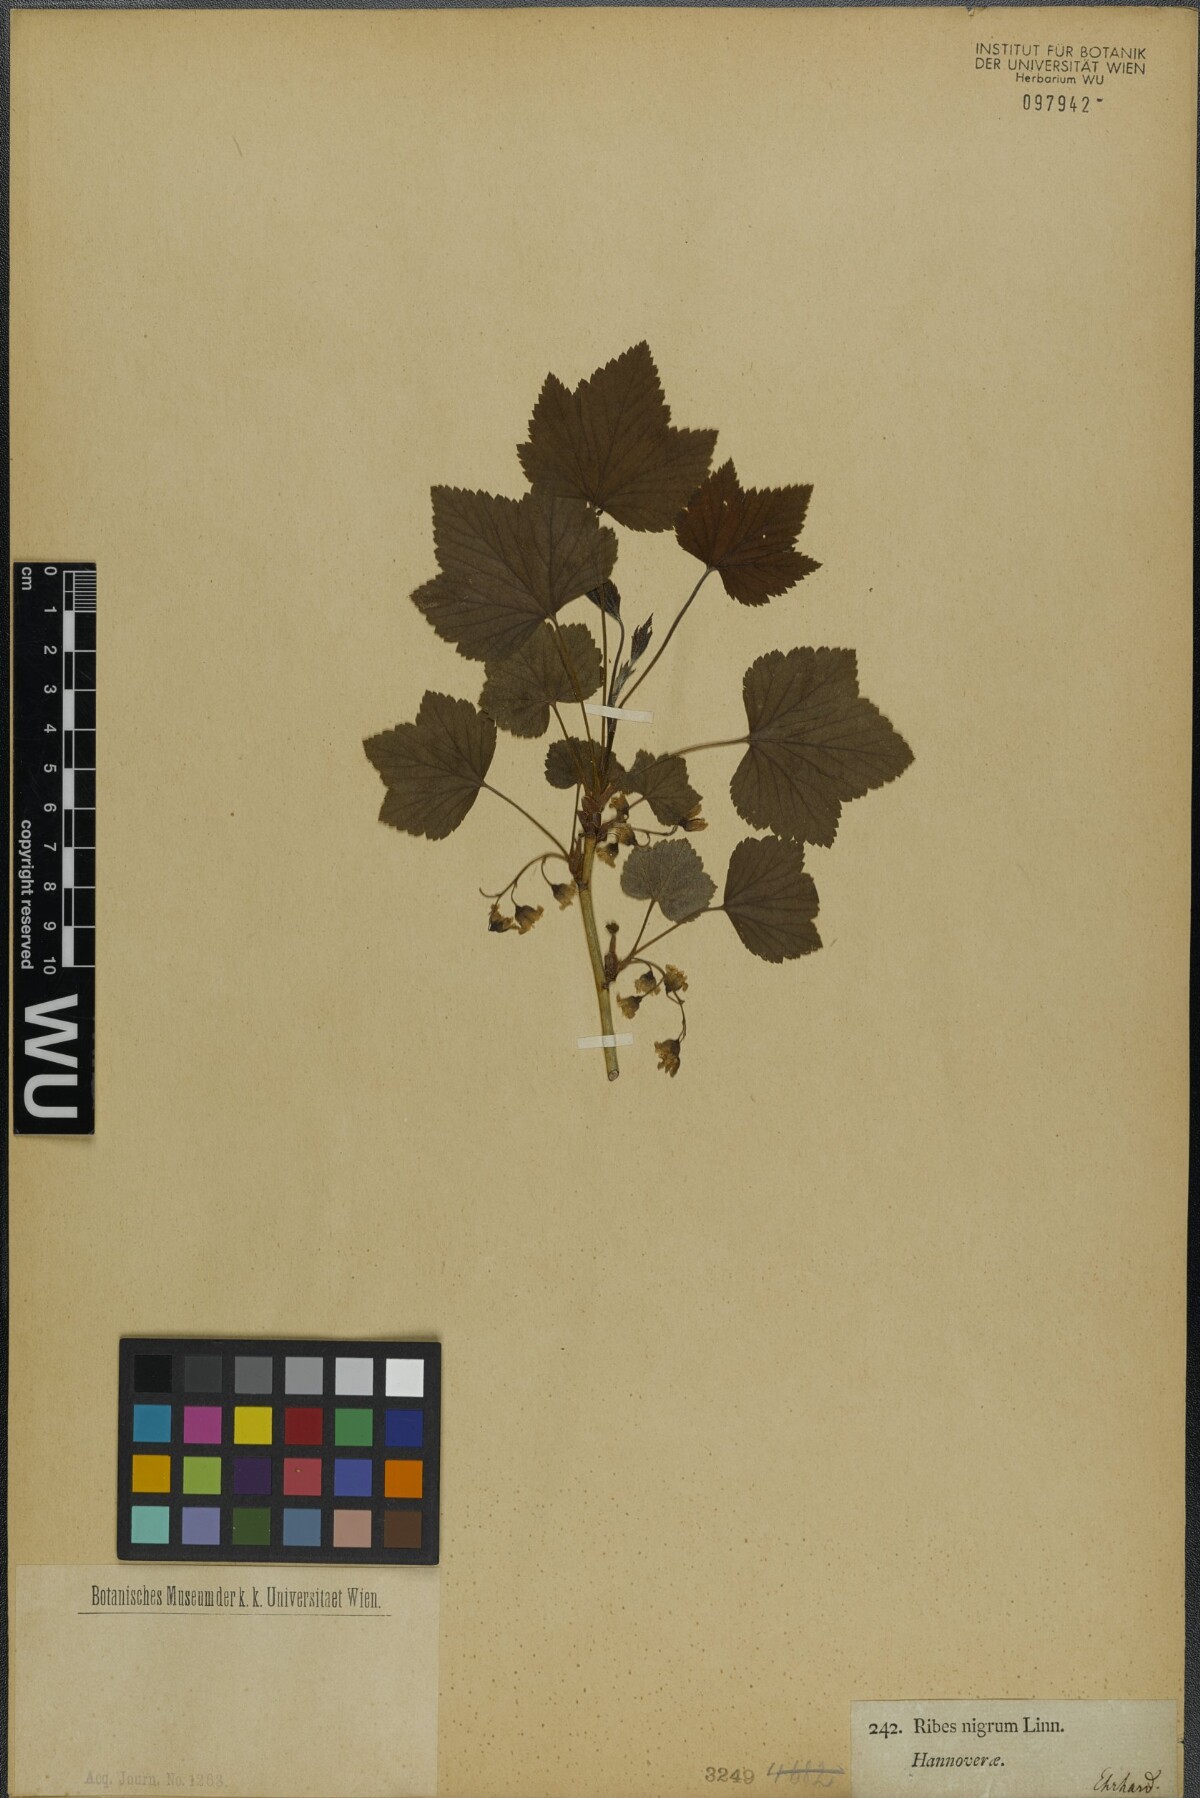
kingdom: Plantae
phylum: Tracheophyta
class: Magnoliopsida
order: Saxifragales
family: Grossulariaceae
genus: Ribes
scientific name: Ribes nigrum
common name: Black currant
